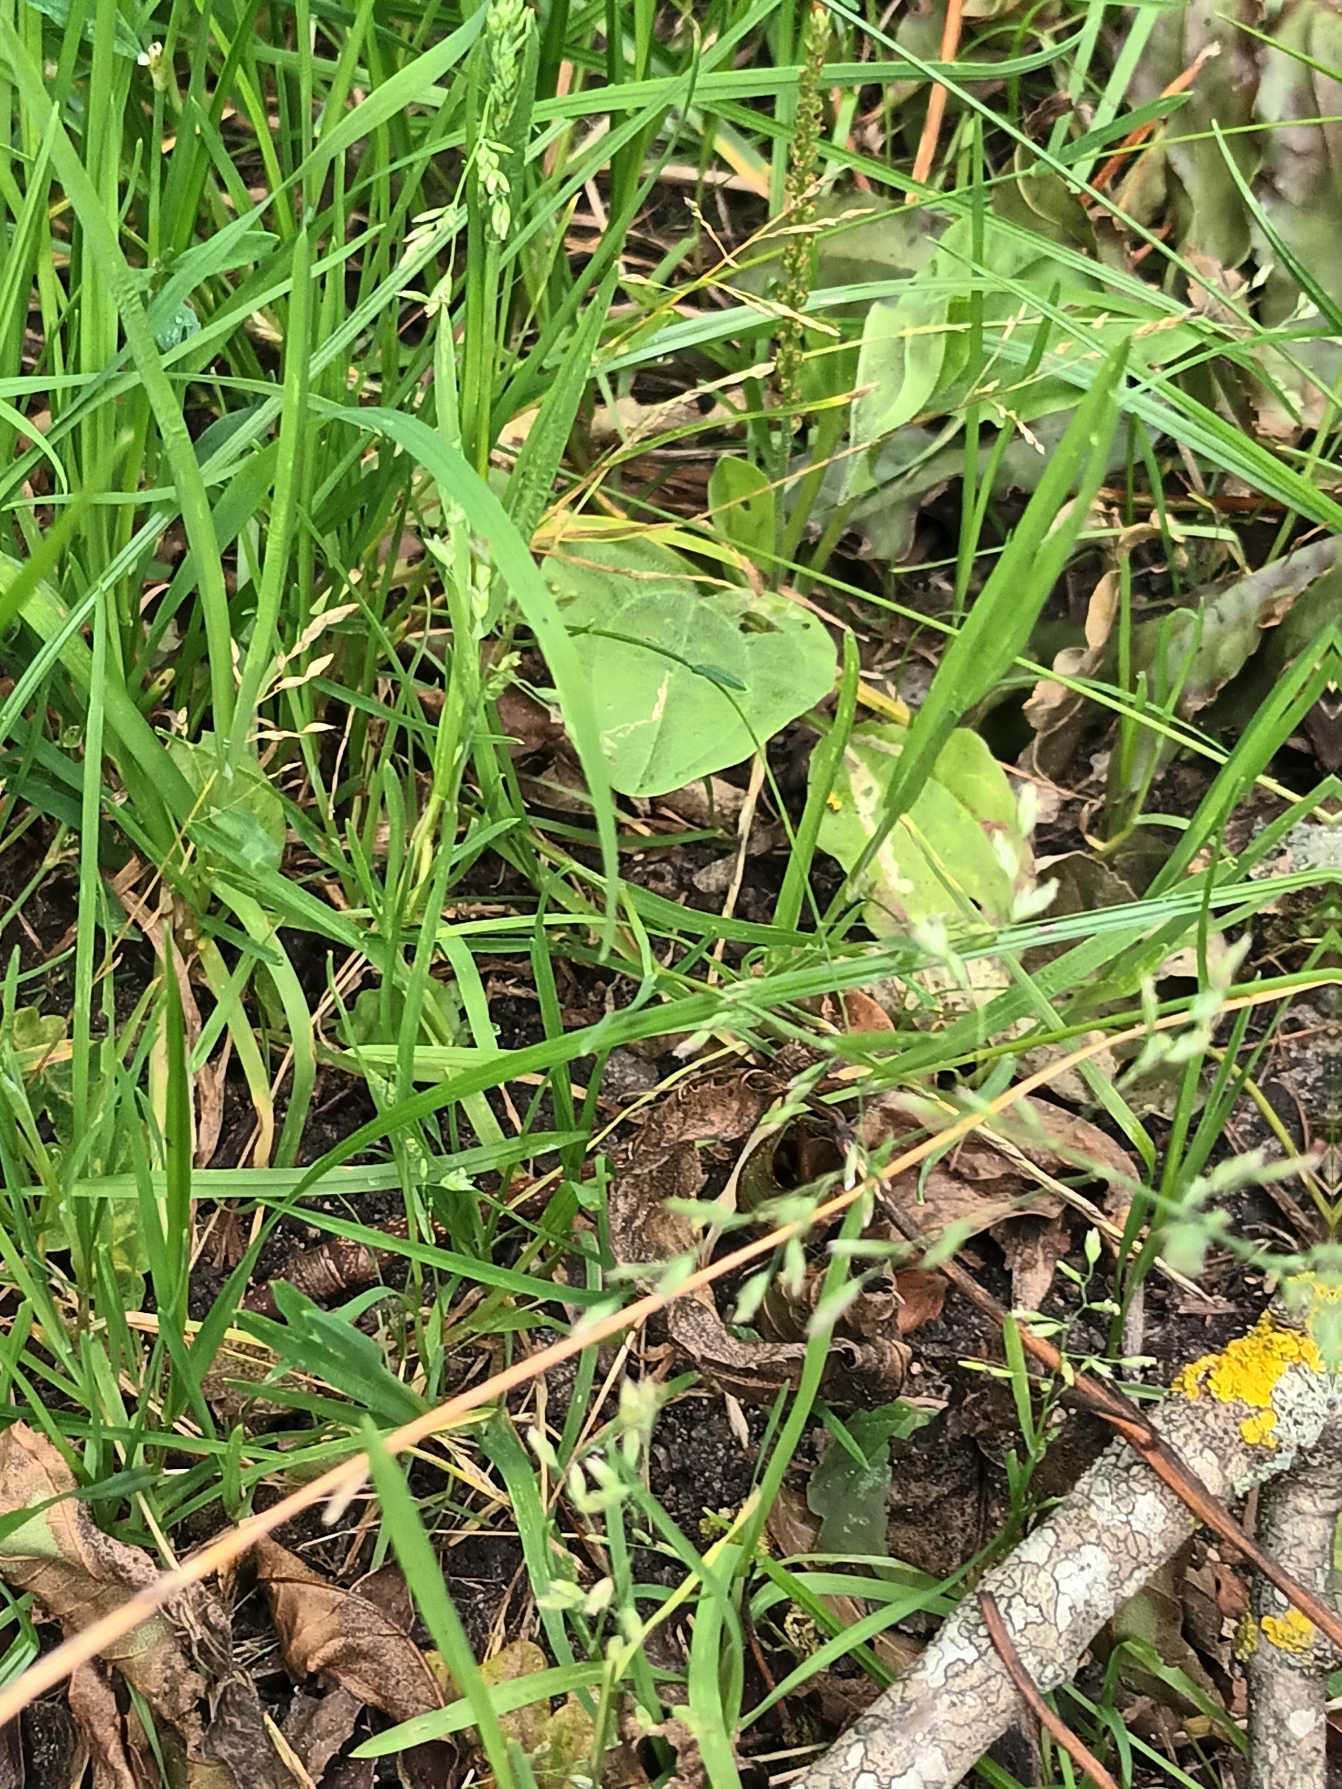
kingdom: Plantae
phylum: Tracheophyta
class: Liliopsida
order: Poales
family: Poaceae
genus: Poa
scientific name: Poa annua
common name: Enårig rapgræs
